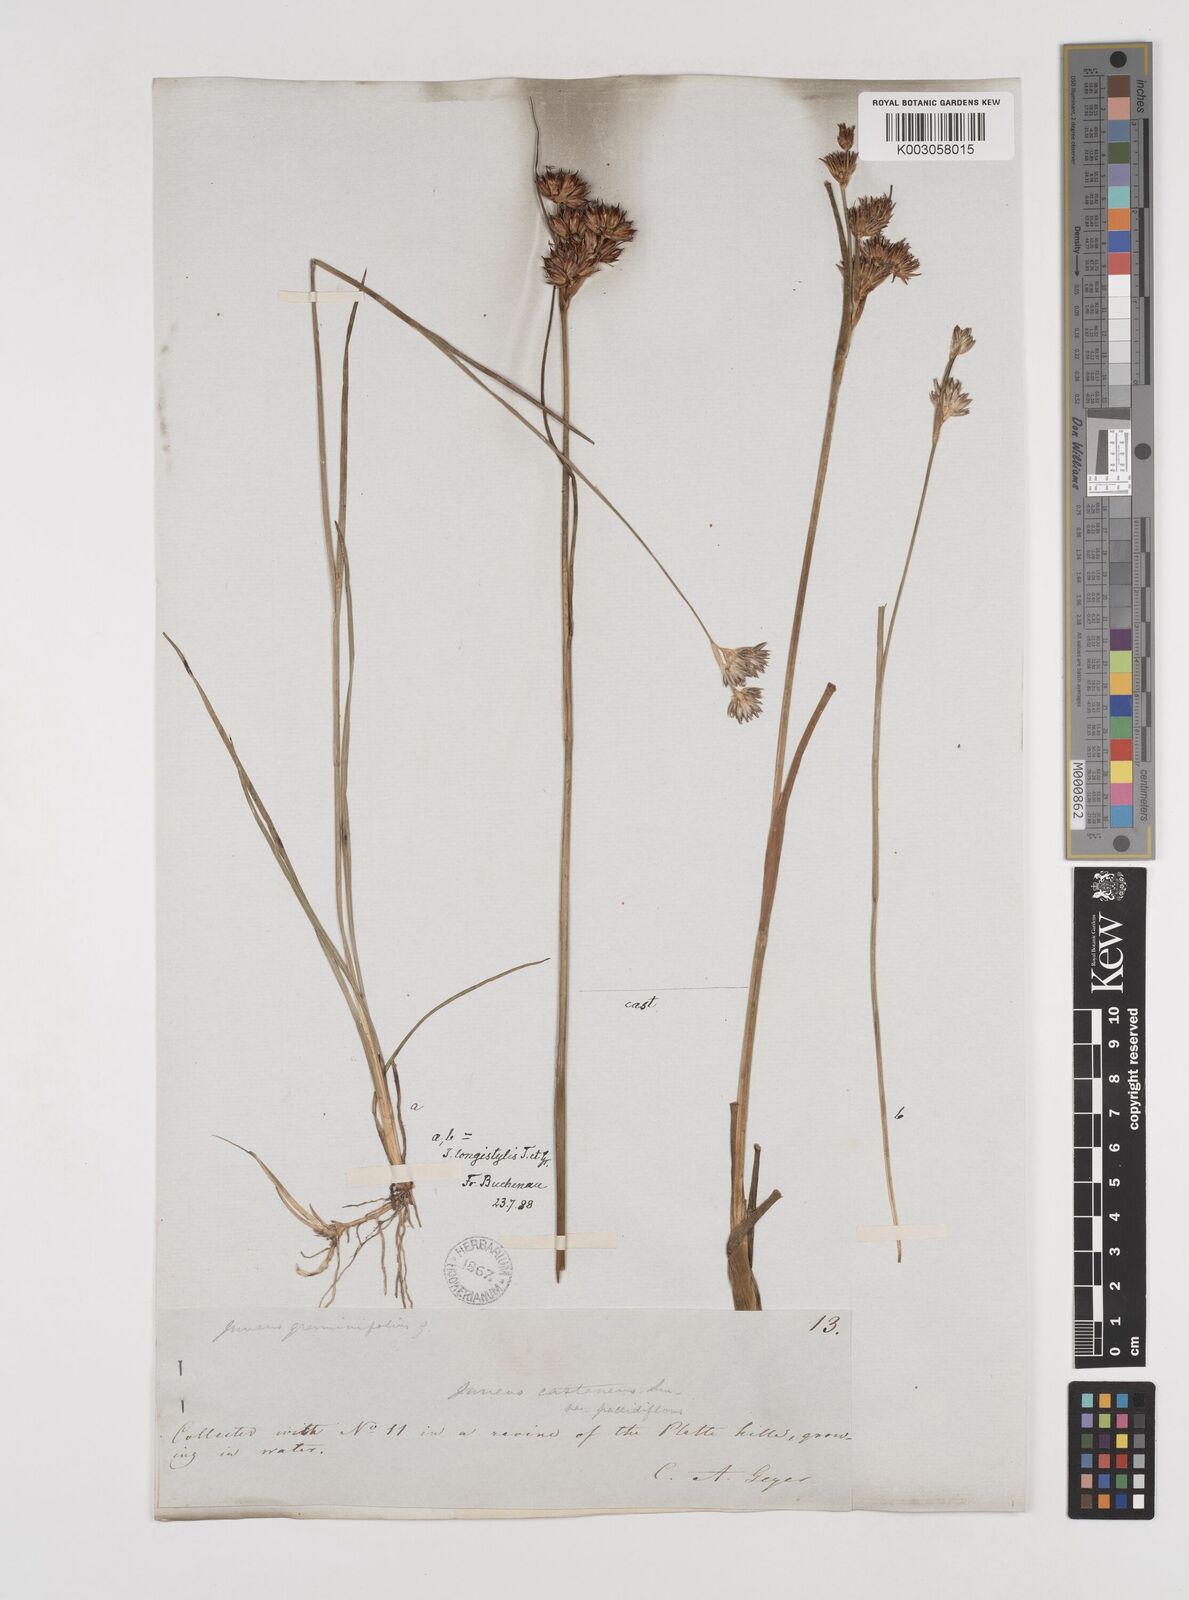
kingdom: Plantae
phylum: Tracheophyta
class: Liliopsida
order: Poales
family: Juncaceae
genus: Juncus
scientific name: Juncus longistylis
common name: Long-style rush
